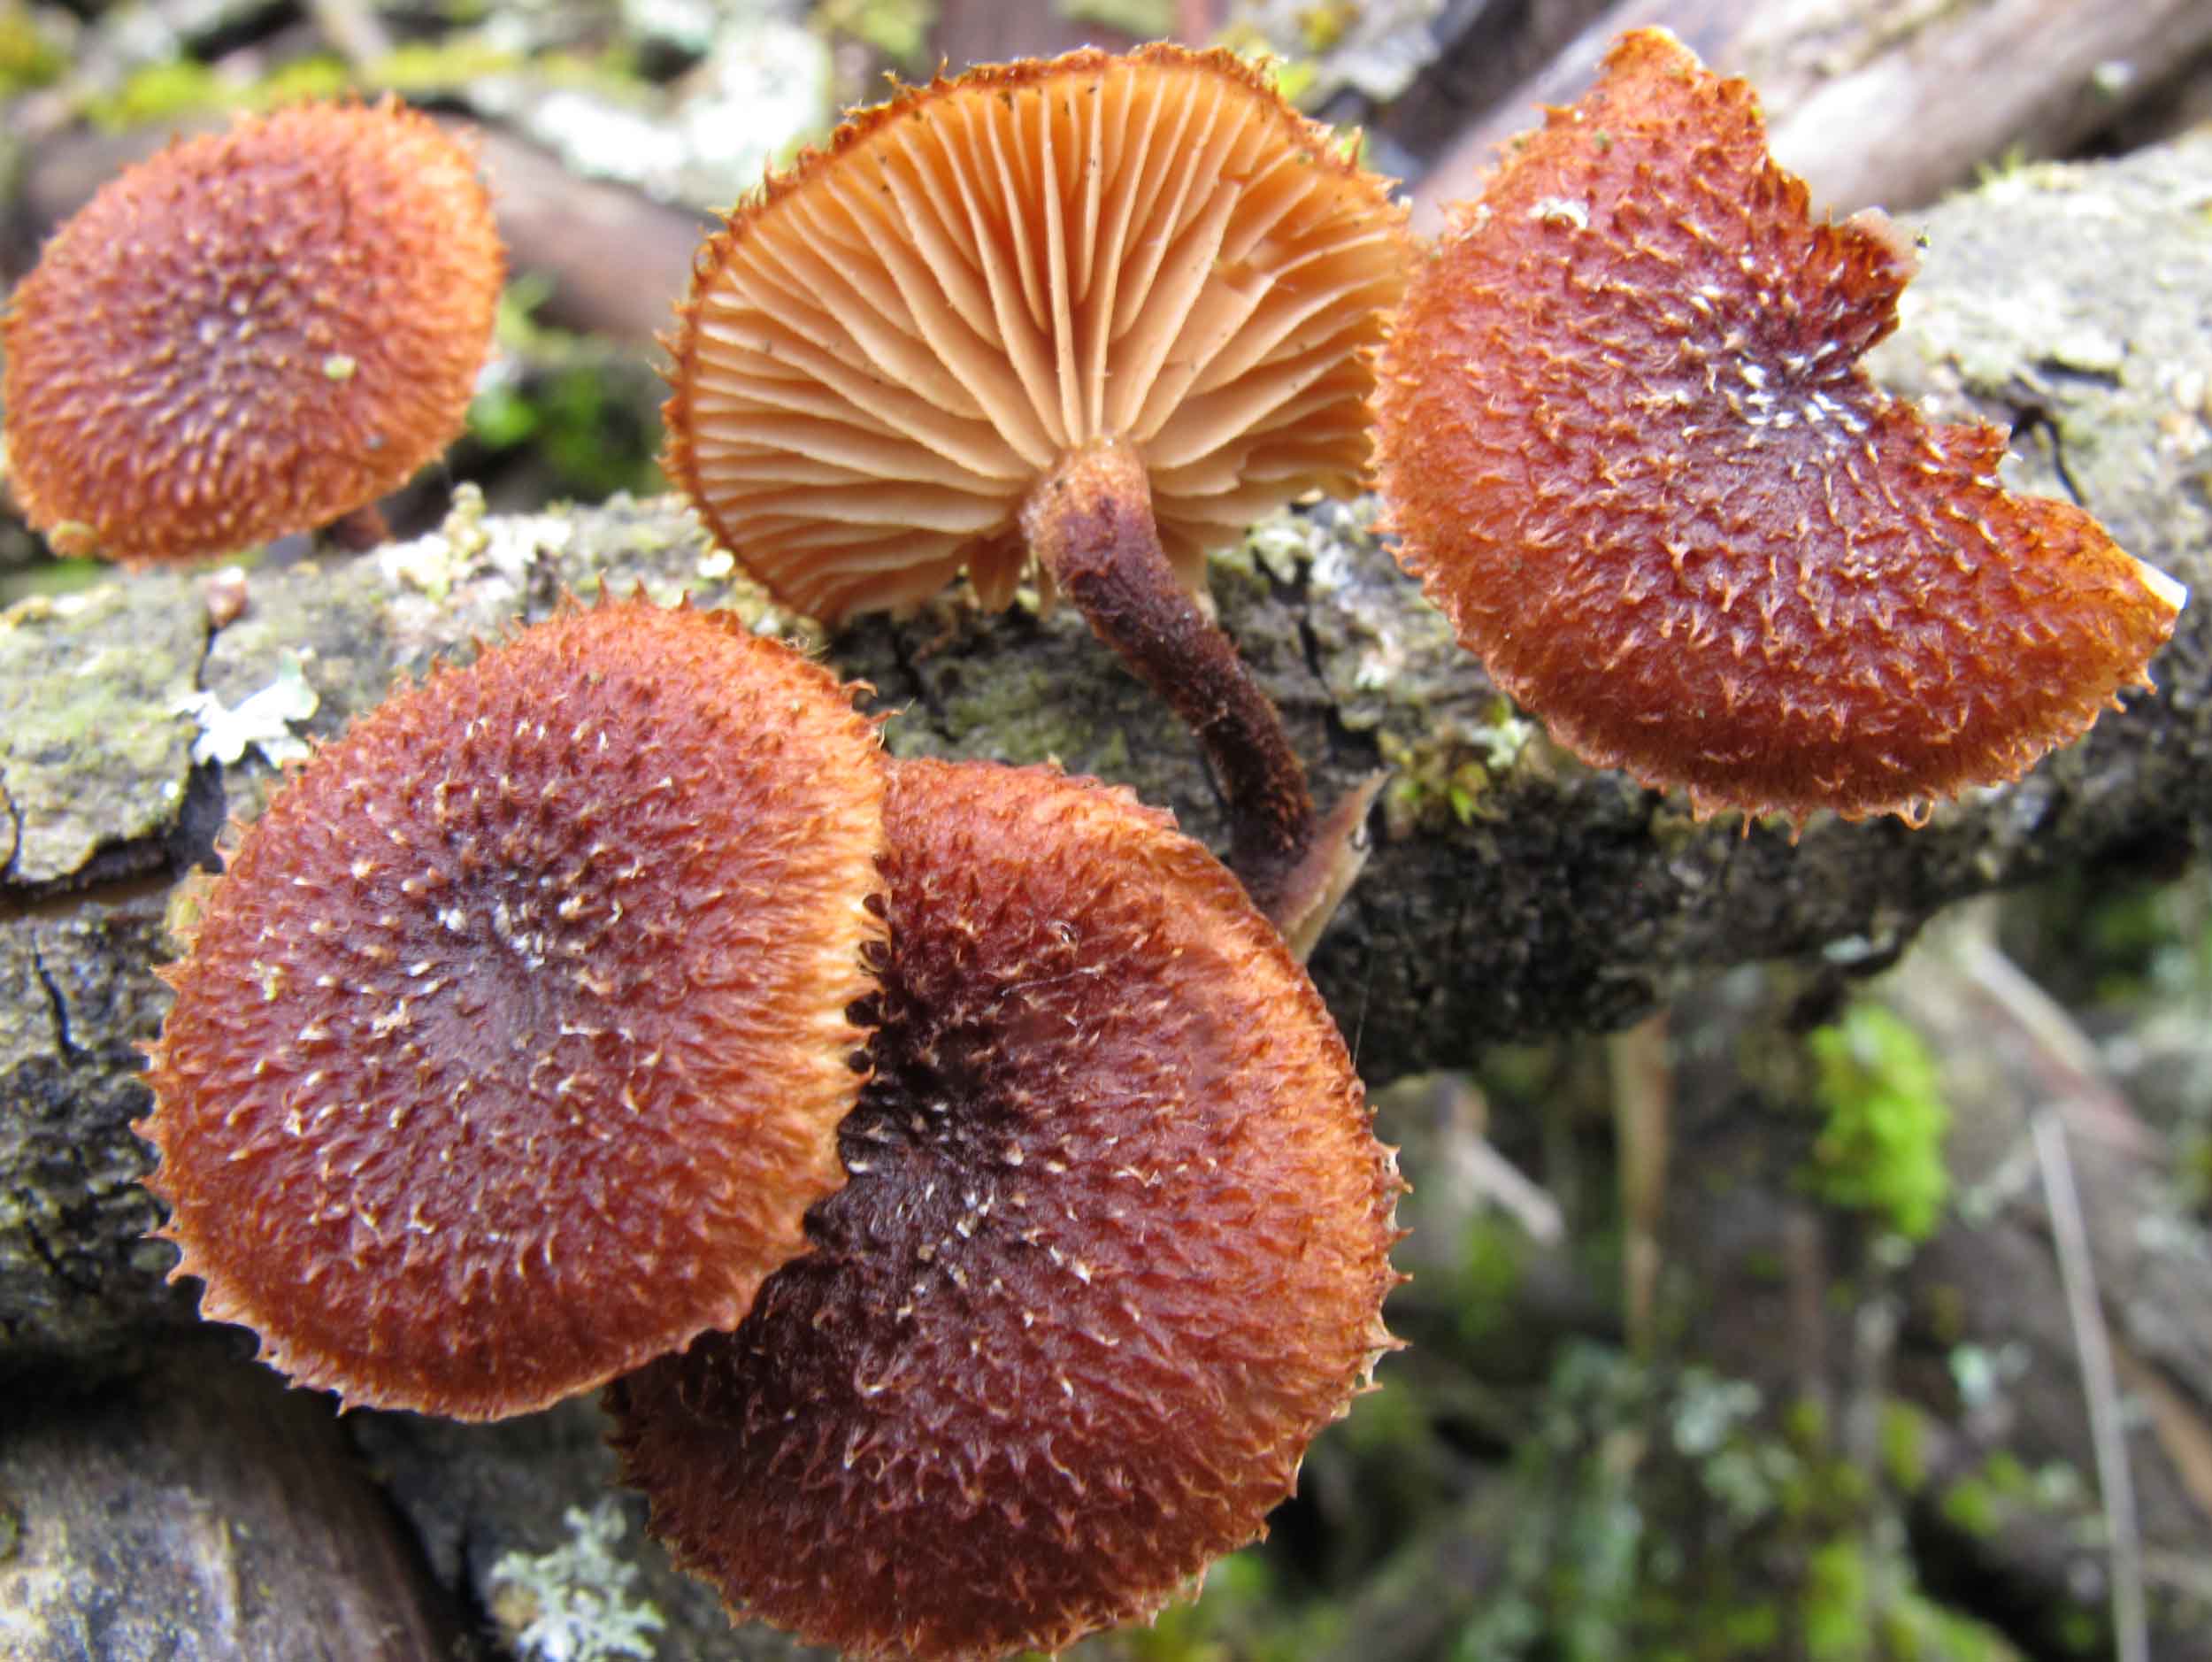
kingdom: Fungi
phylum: Basidiomycota
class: Agaricomycetes
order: Agaricales
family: Tubariaceae
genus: Phaeomarasmius
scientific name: Phaeomarasmius erinaceus
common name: spidsskælhat
